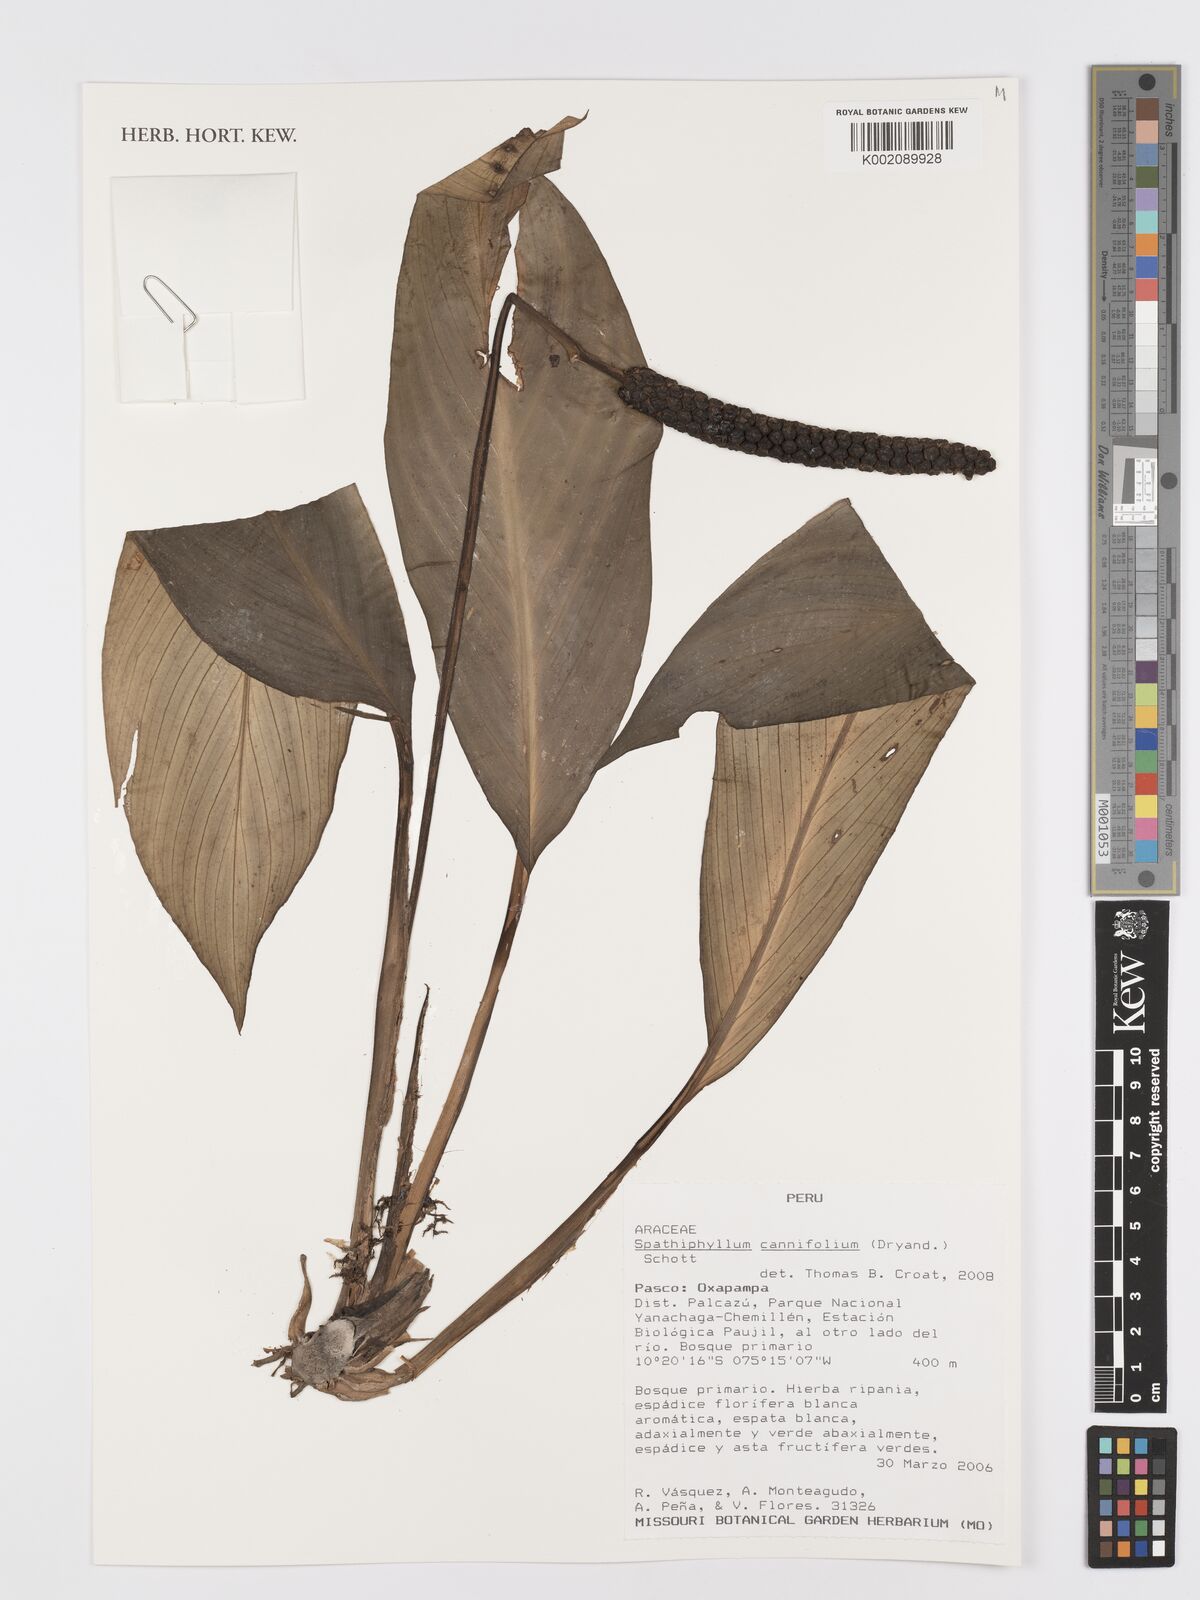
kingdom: Plantae
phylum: Tracheophyta
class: Liliopsida
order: Alismatales
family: Araceae
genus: Spathiphyllum
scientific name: Spathiphyllum cannifolium
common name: Spatheflower
